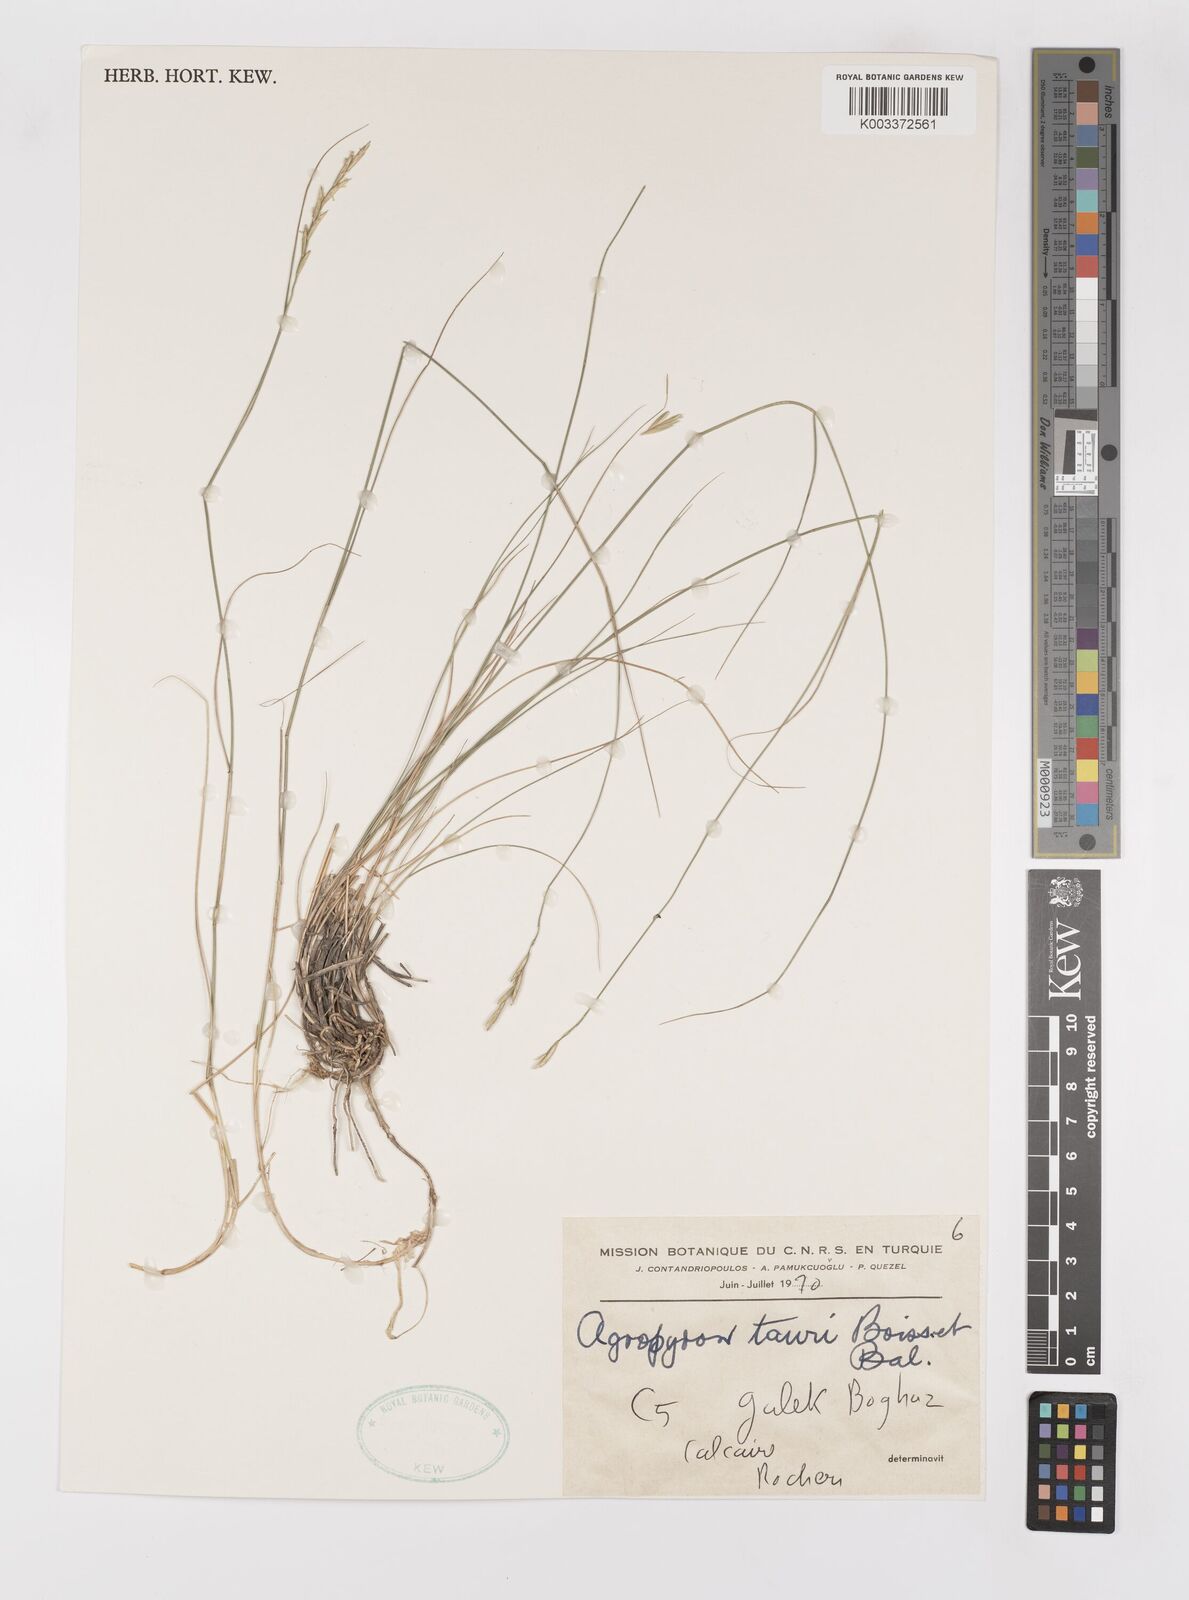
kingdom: Plantae
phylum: Tracheophyta
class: Liliopsida
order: Poales
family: Poaceae
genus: Pseudoroegneria
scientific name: Pseudoroegneria tauri
